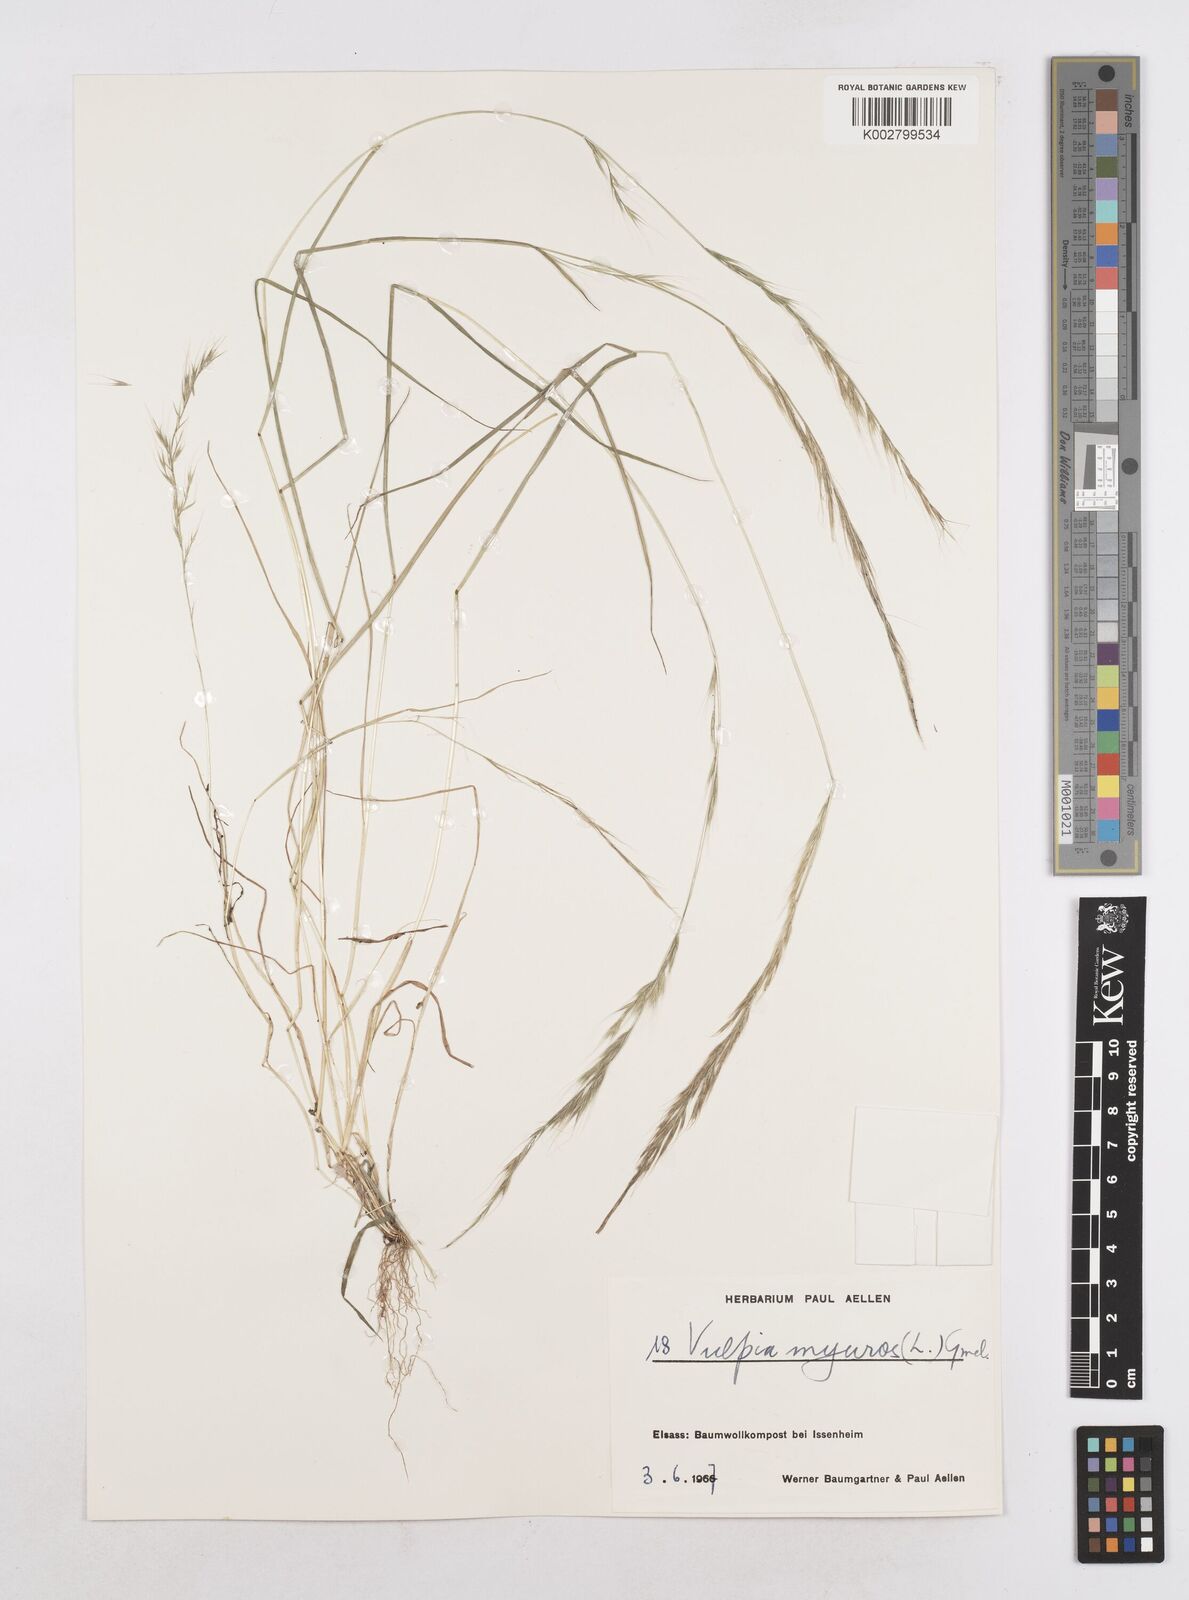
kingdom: Plantae
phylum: Tracheophyta
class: Liliopsida
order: Poales
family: Poaceae
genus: Festuca
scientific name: Festuca myuros
